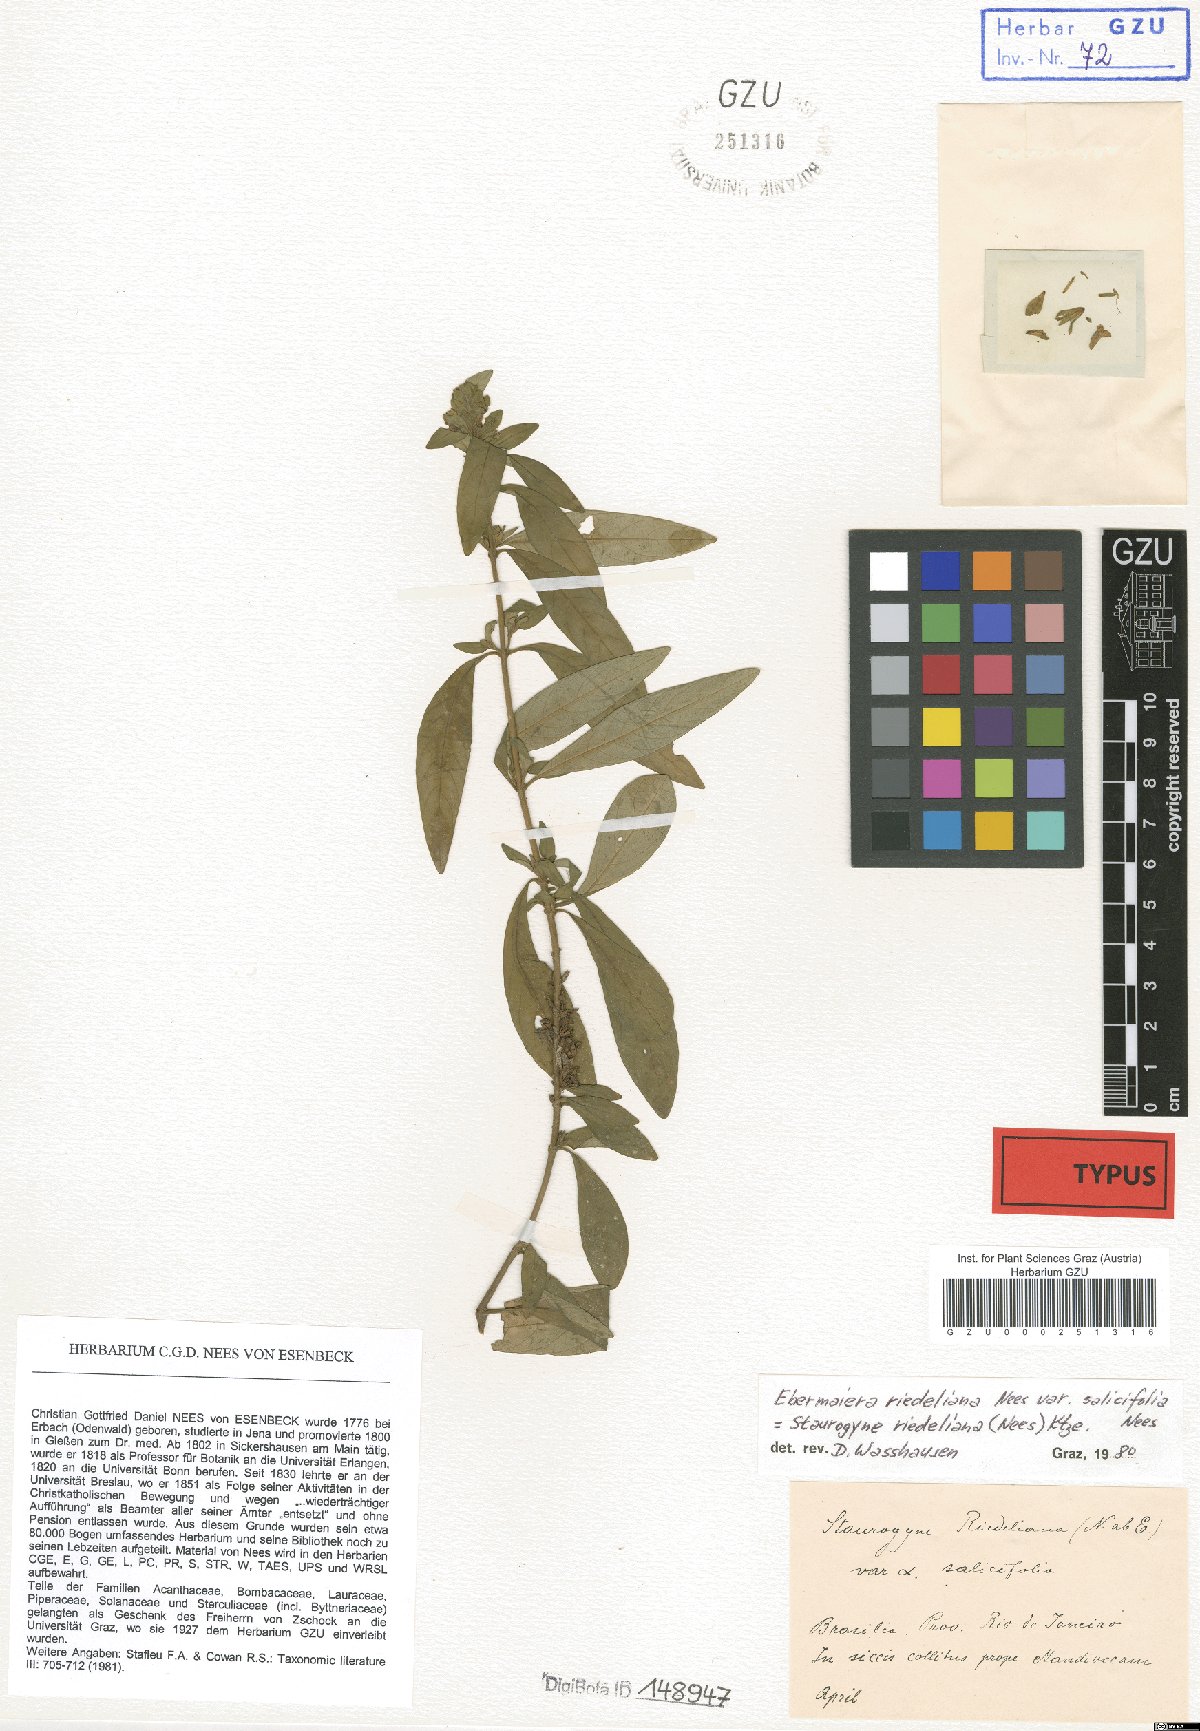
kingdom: Plantae
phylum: Tracheophyta
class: Magnoliopsida
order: Lamiales
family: Acanthaceae
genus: Staurogyne
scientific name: Staurogyne riedeliana
